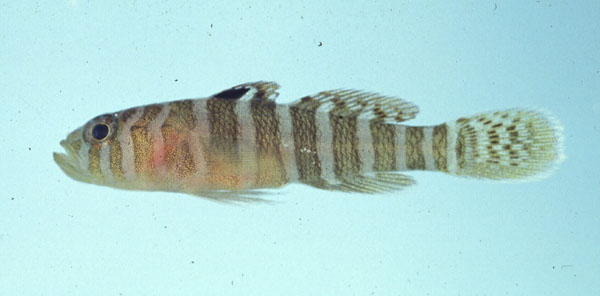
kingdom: Animalia
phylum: Chordata
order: Perciformes
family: Gobiidae
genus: Priolepis
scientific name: Priolepis cincta
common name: Banded reef-goby
